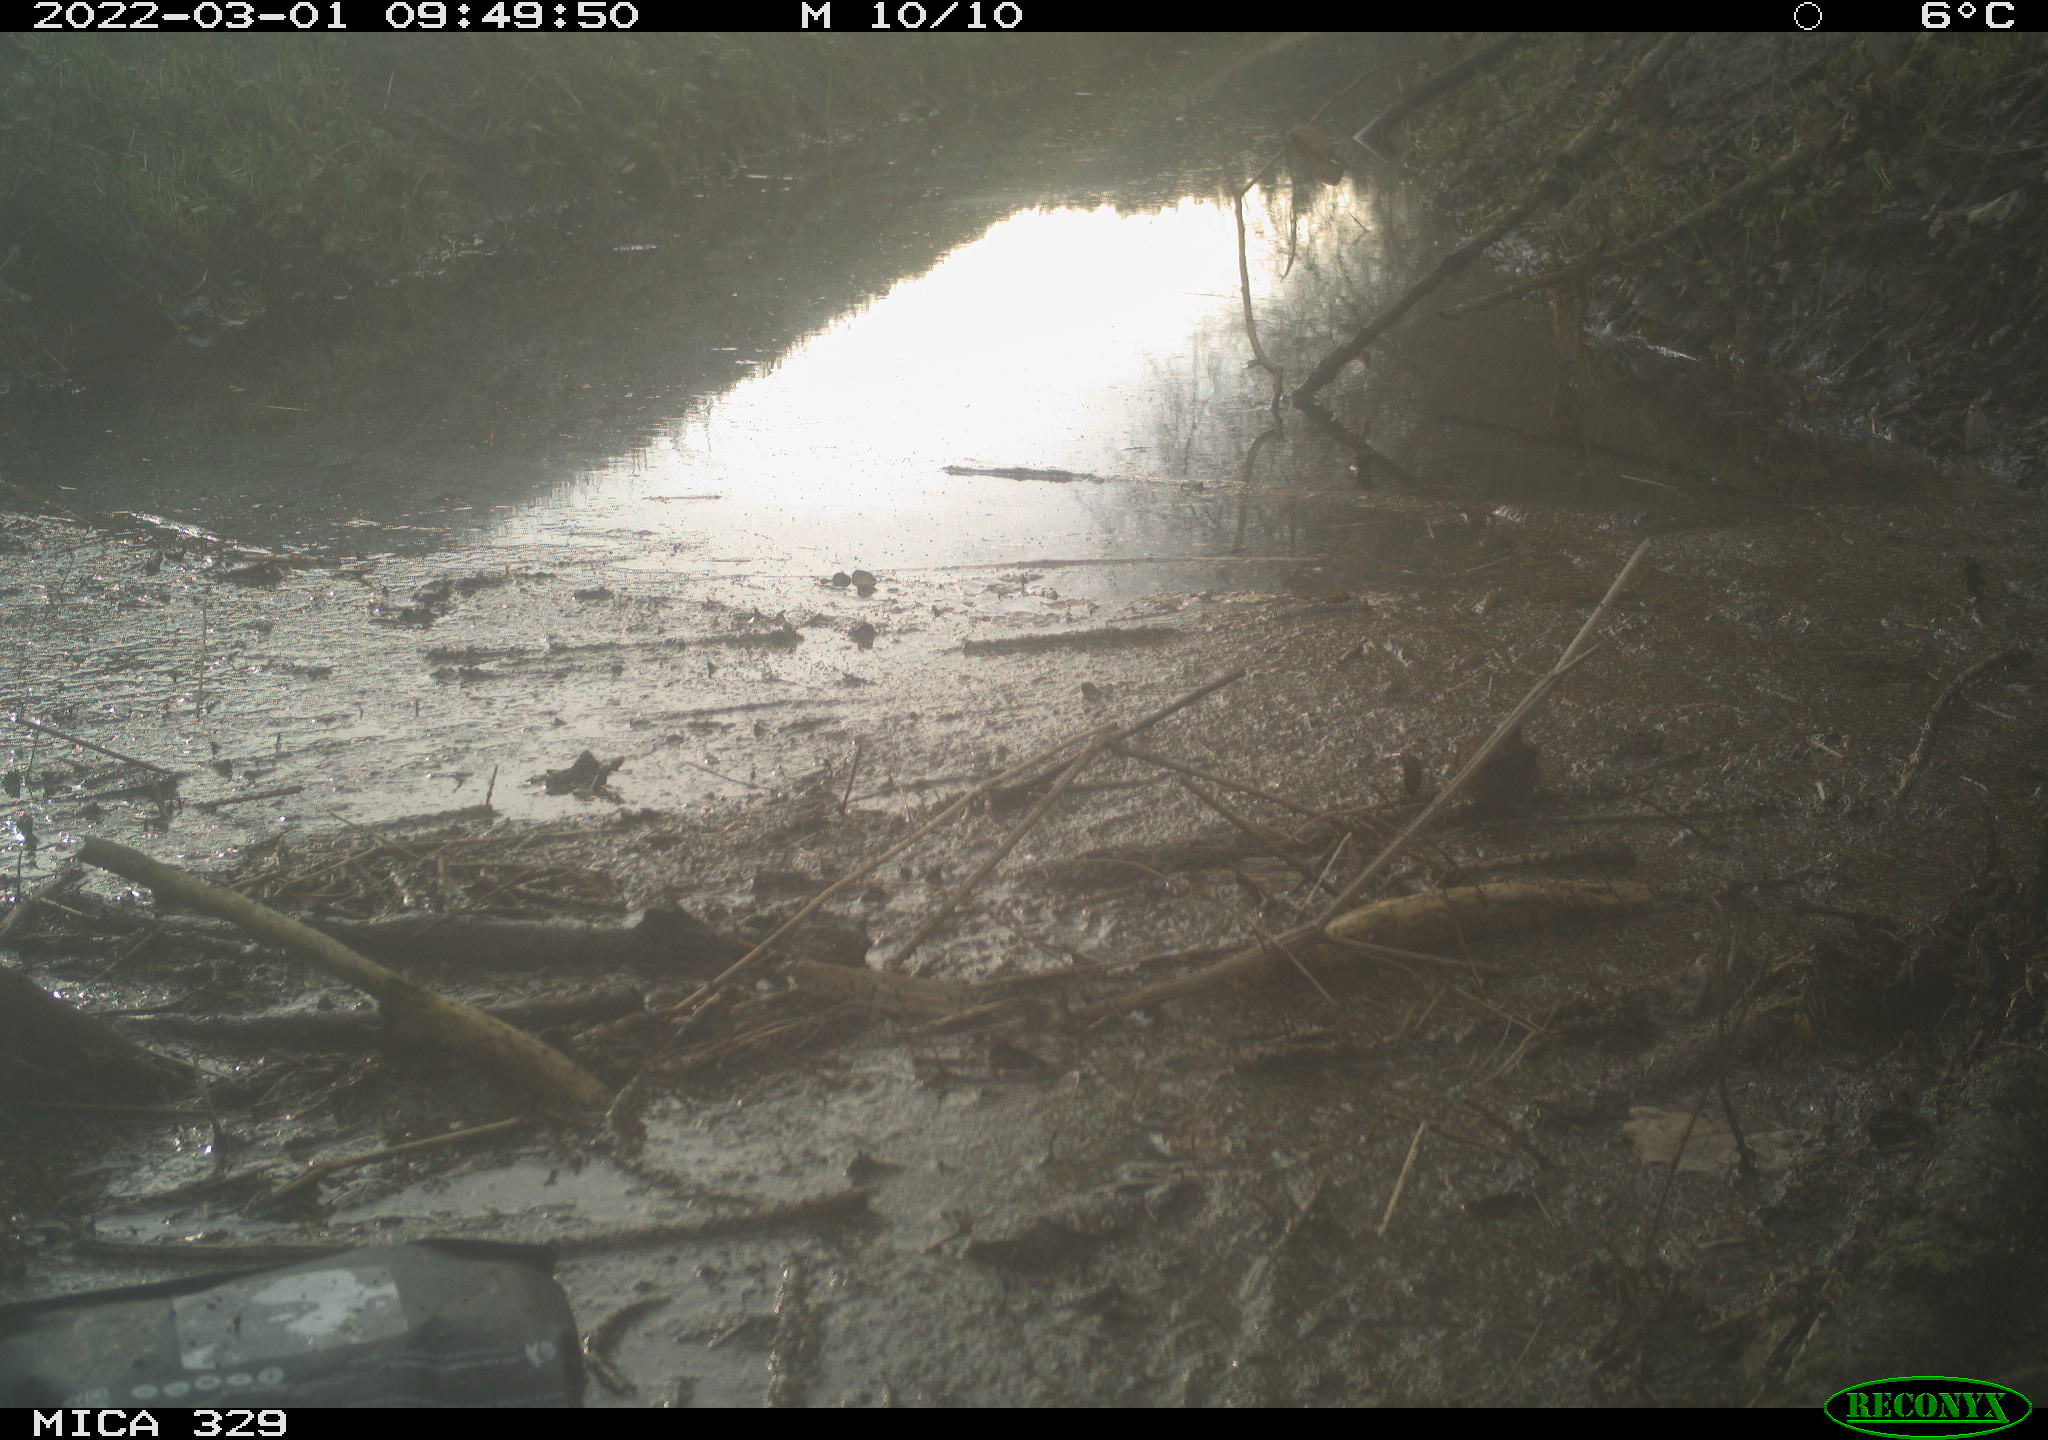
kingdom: Animalia
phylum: Chordata
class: Aves
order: Passeriformes
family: Fringillidae
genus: Fringilla
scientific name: Fringilla coelebs
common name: Common chaffinch
